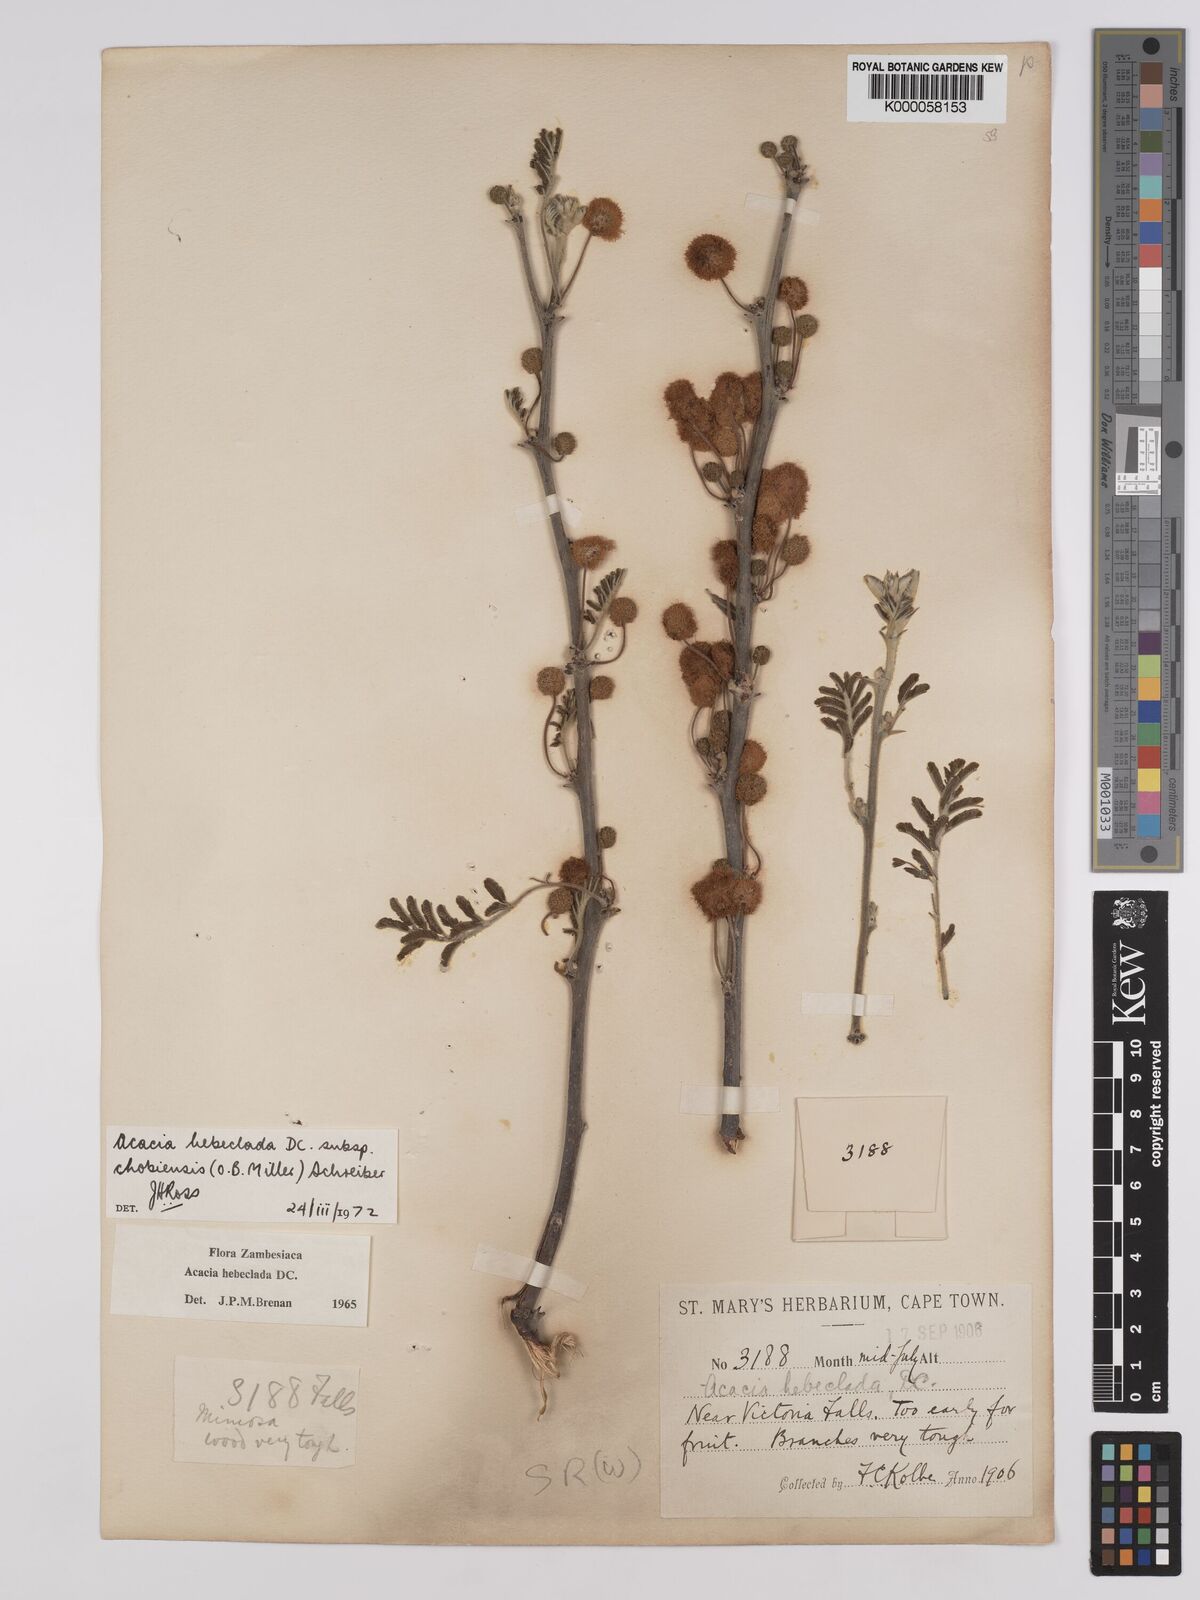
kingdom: Plantae
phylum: Tracheophyta
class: Magnoliopsida
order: Fabales
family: Fabaceae
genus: Vachellia
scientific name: Vachellia hebeclada
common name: Candle thorn
